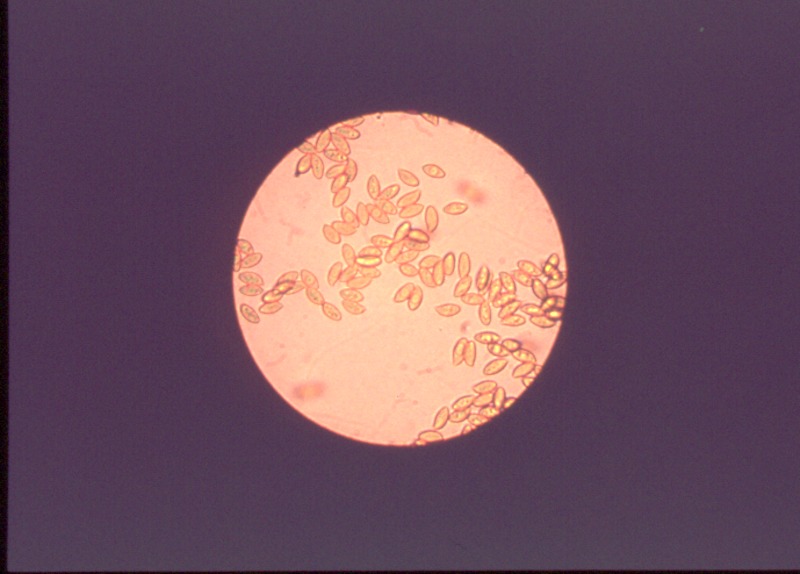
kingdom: Fungi
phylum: Basidiomycota
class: Agaricomycetes
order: Agaricales
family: Cortinariaceae
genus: Cortinarius
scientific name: Cortinarius sebaceus
